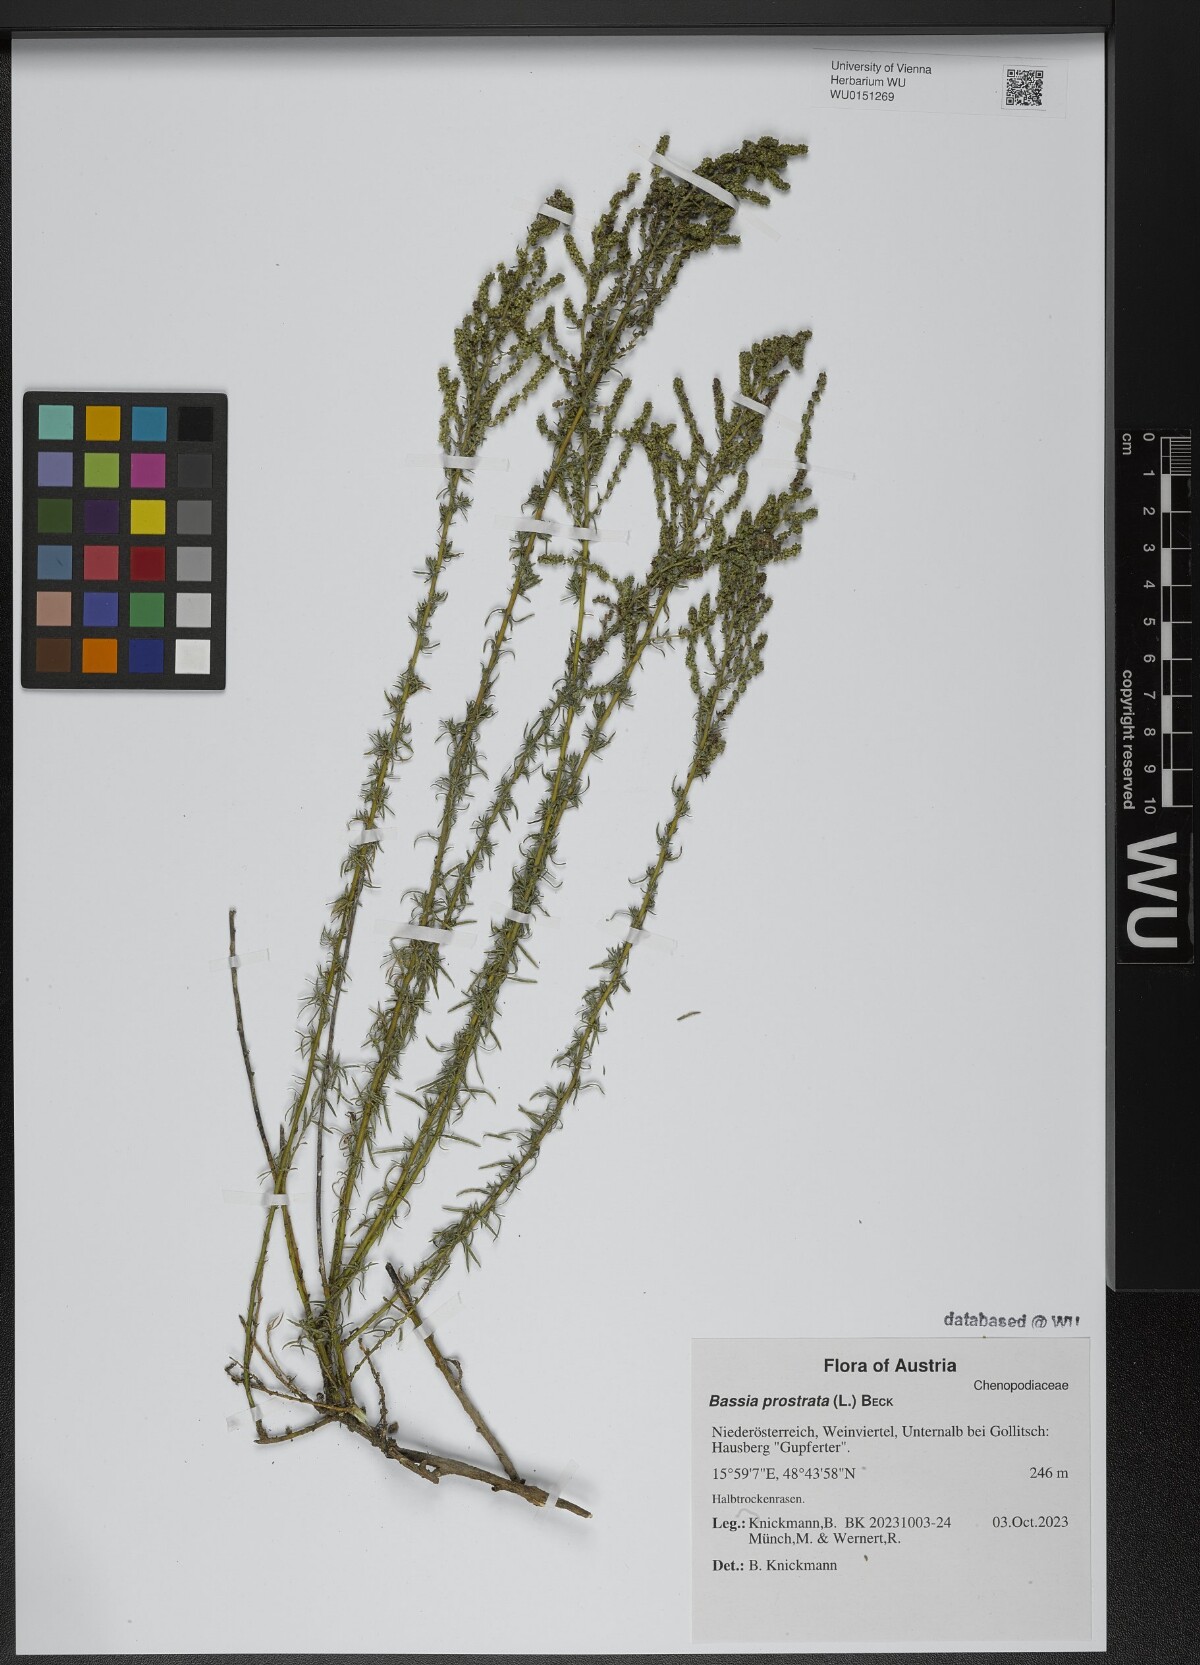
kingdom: Plantae
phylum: Tracheophyta
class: Magnoliopsida
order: Caryophyllales
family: Amaranthaceae
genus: Bassia
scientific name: Bassia prostrata
